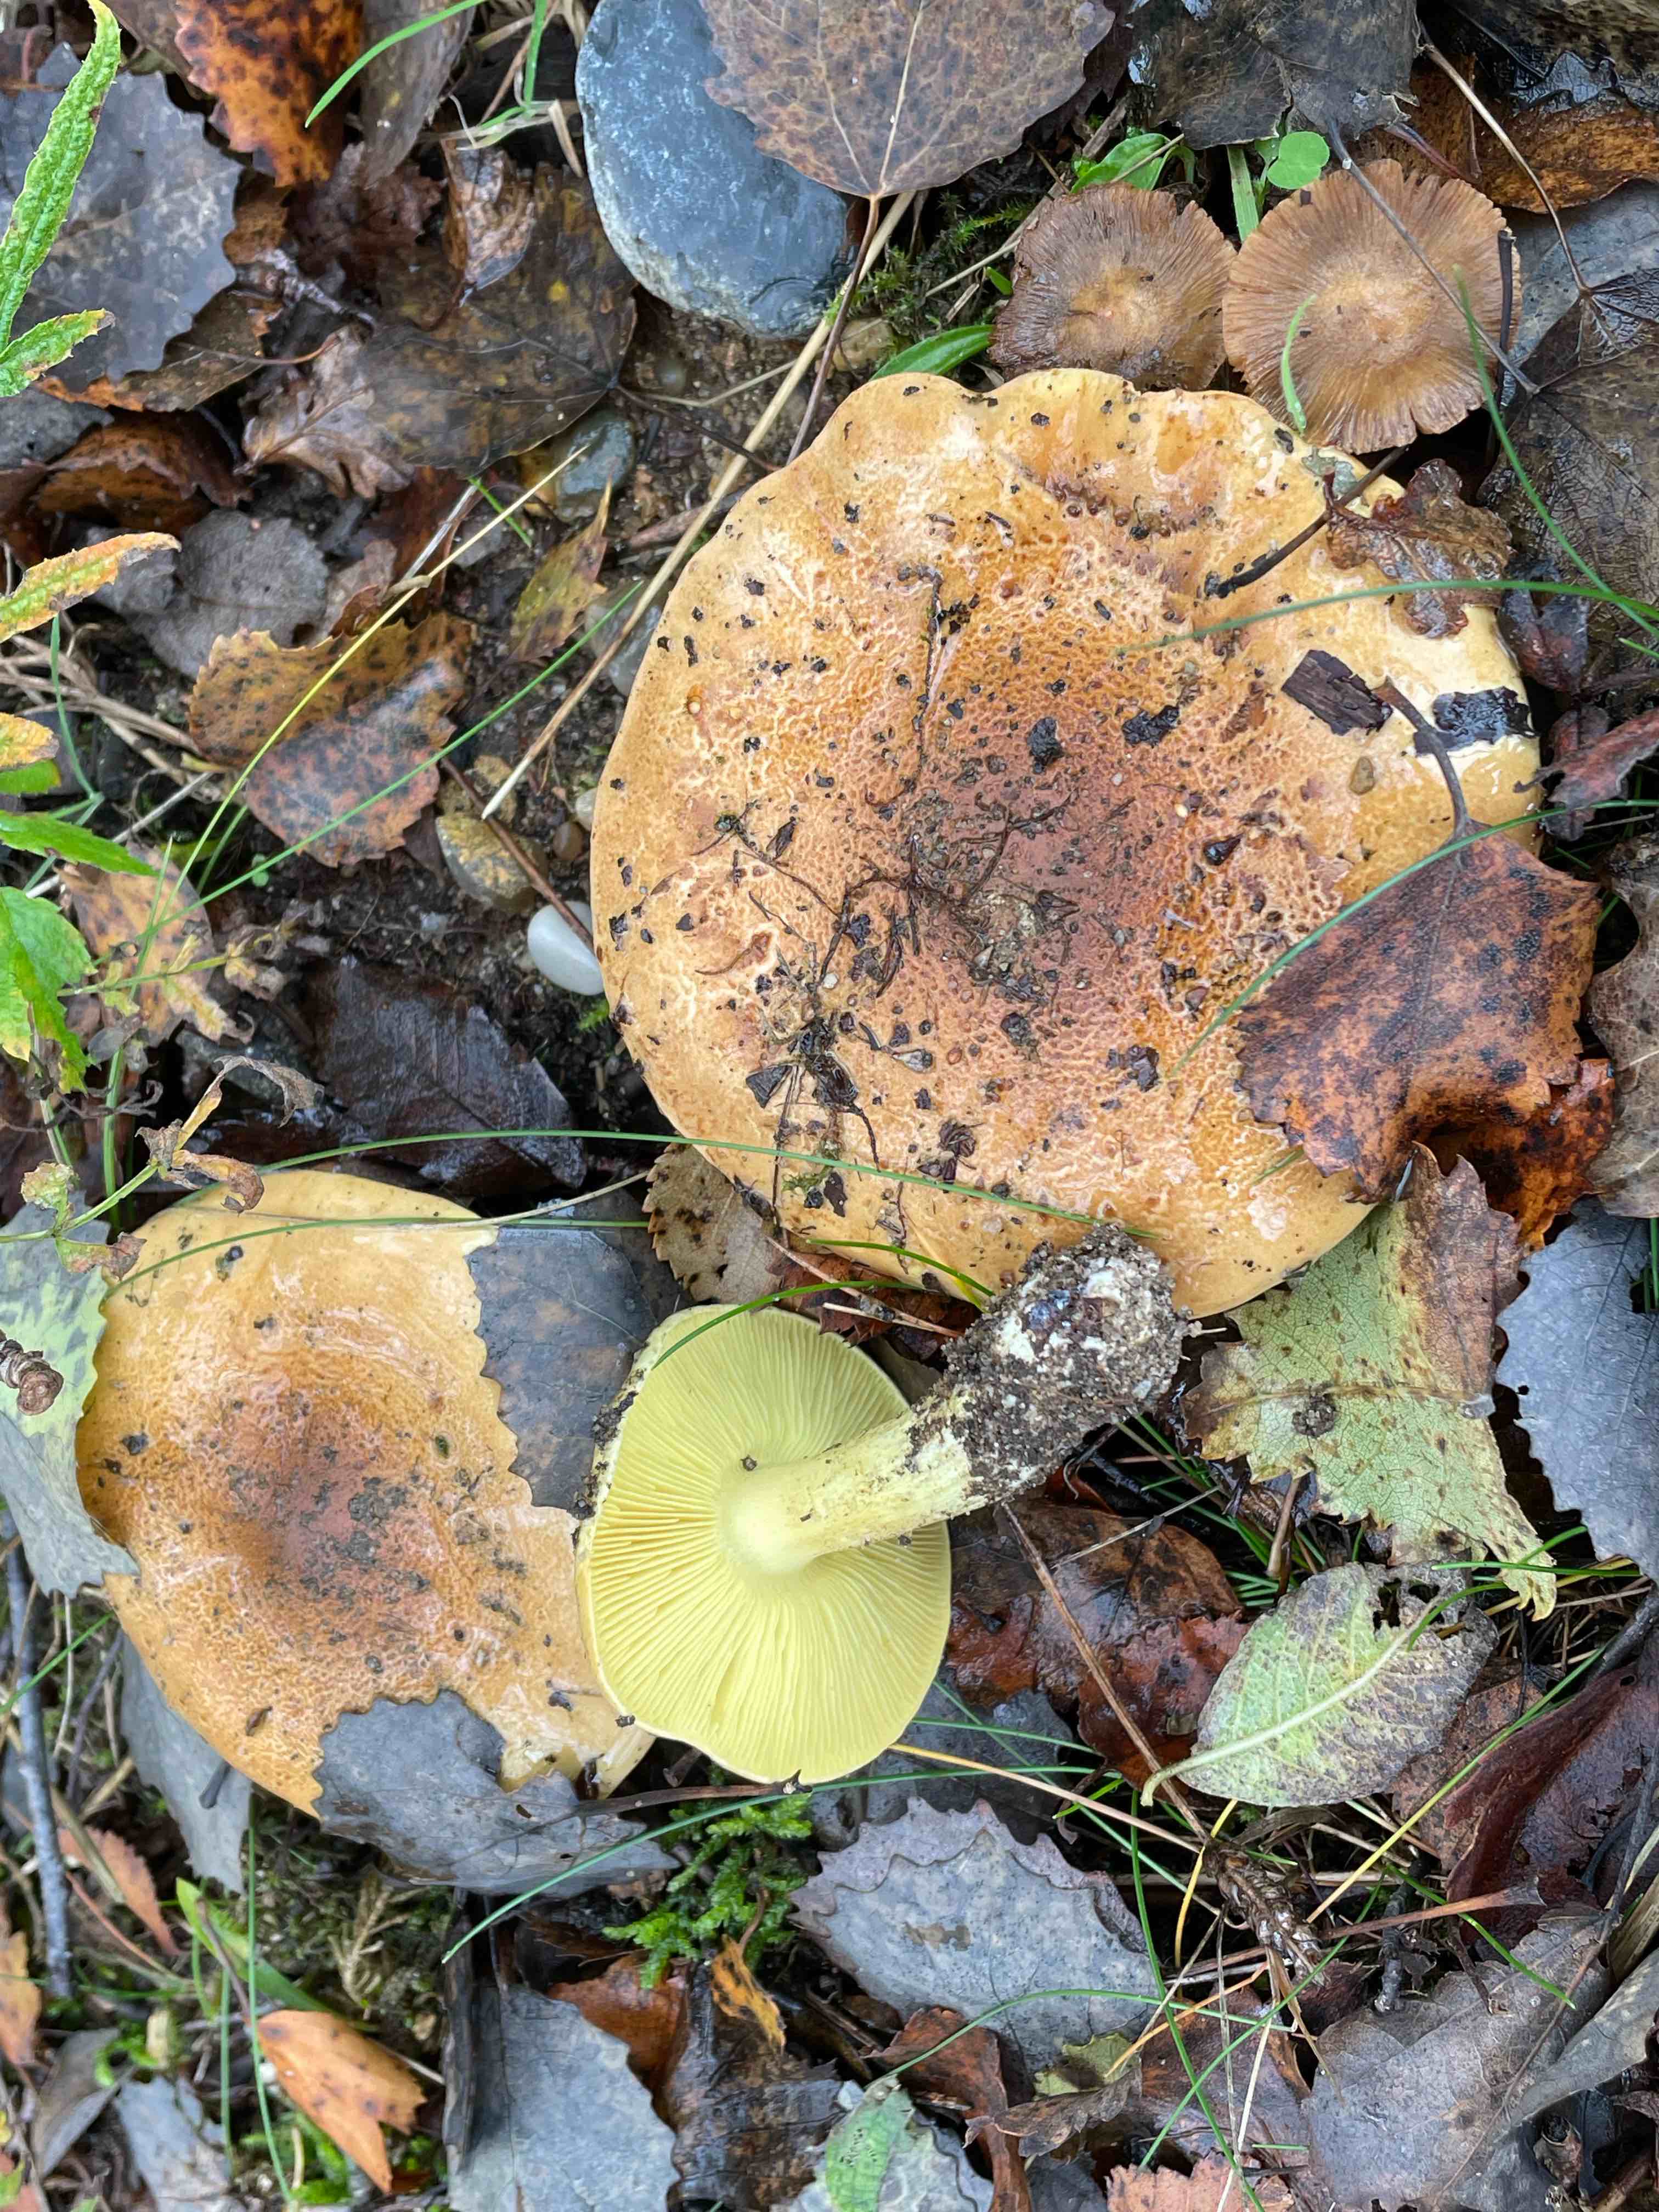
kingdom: Fungi
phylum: Basidiomycota
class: Agaricomycetes
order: Agaricales
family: Tricholomataceae
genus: Tricholoma
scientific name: Tricholoma frondosae
